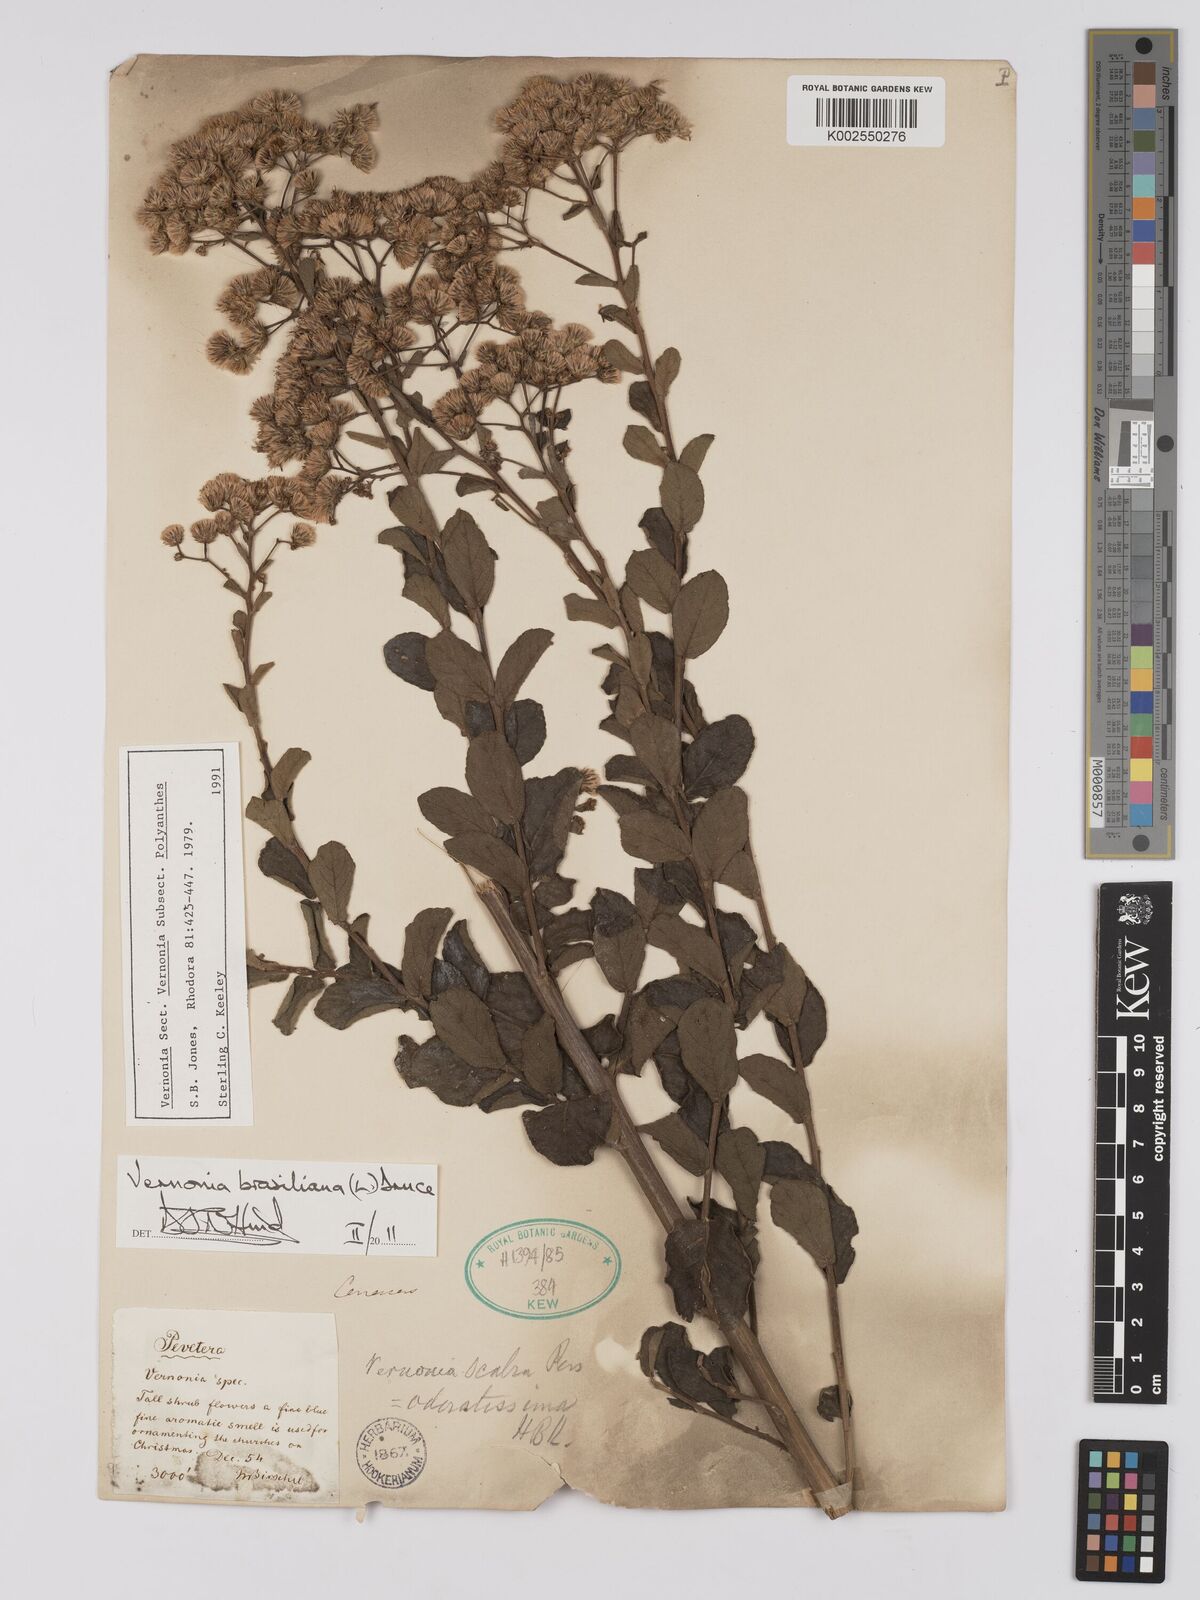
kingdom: Plantae
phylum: Tracheophyta
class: Magnoliopsida
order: Asterales
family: Asteraceae
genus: Vernonanthura
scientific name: Vernonanthura brasiliana
